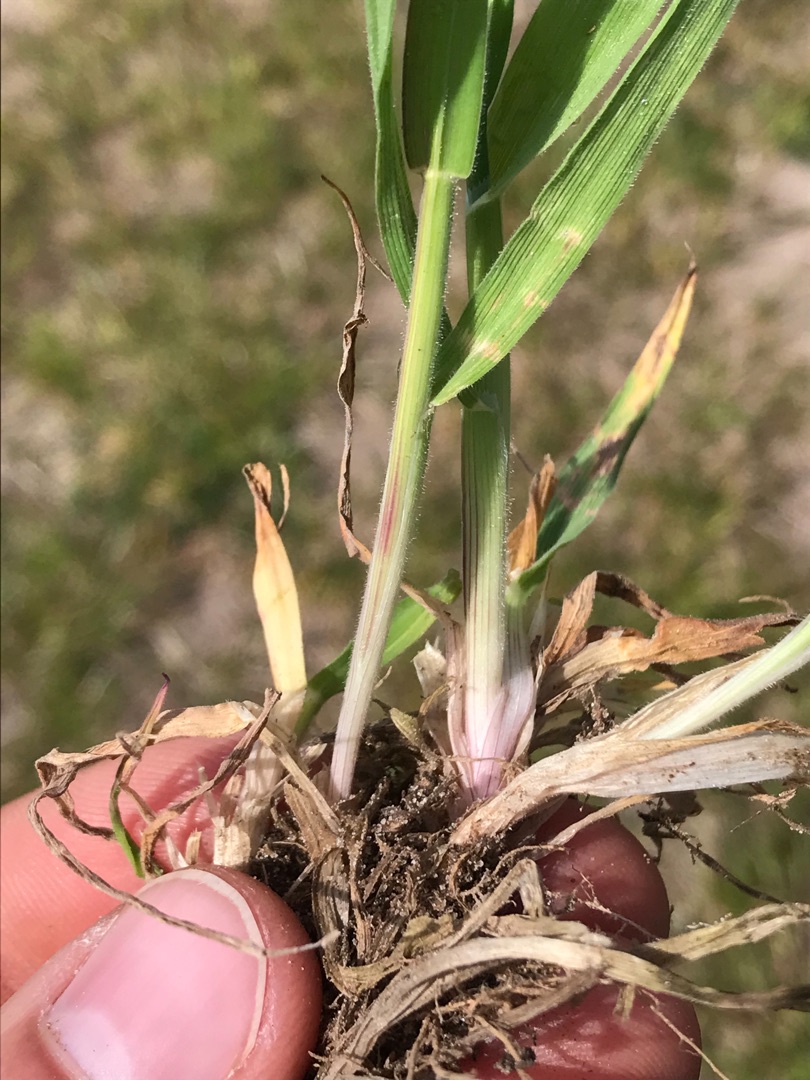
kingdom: Plantae
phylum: Tracheophyta
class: Liliopsida
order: Poales
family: Poaceae
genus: Holcus
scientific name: Holcus lanatus
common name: Fløjlsgræs
